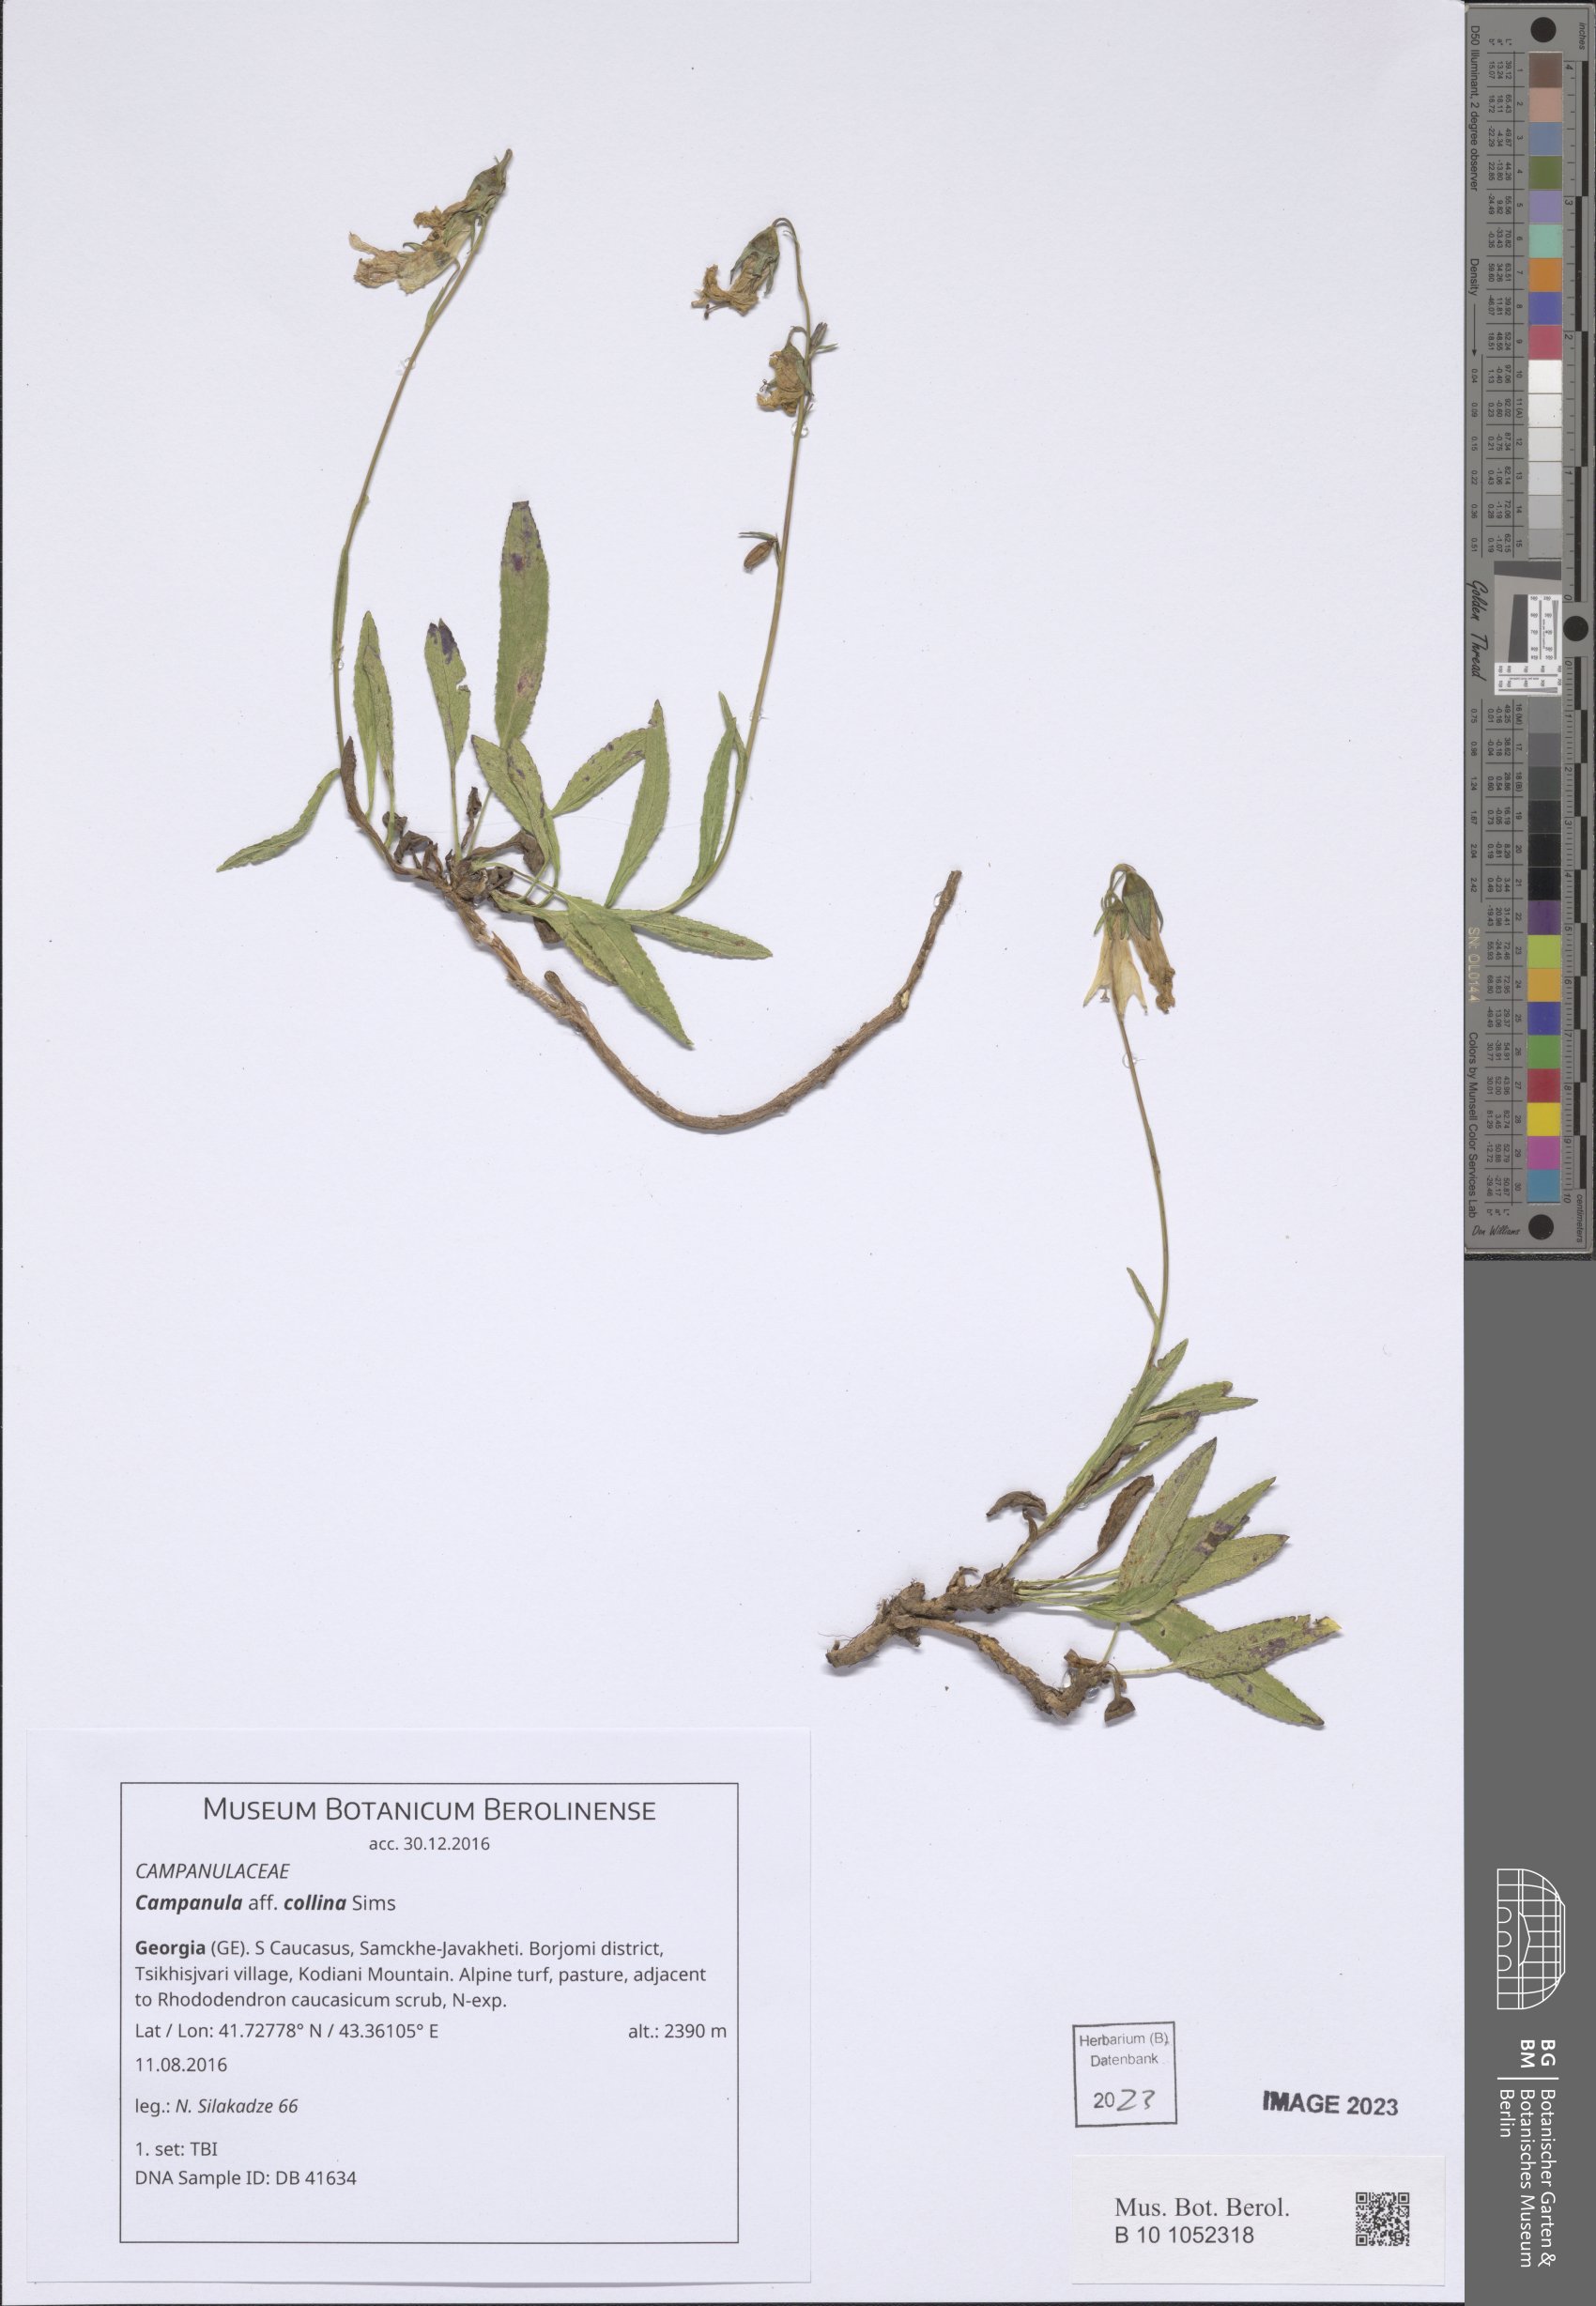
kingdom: Plantae
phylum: Tracheophyta
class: Magnoliopsida
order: Asterales
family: Campanulaceae
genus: Campanula
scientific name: Campanula collina
